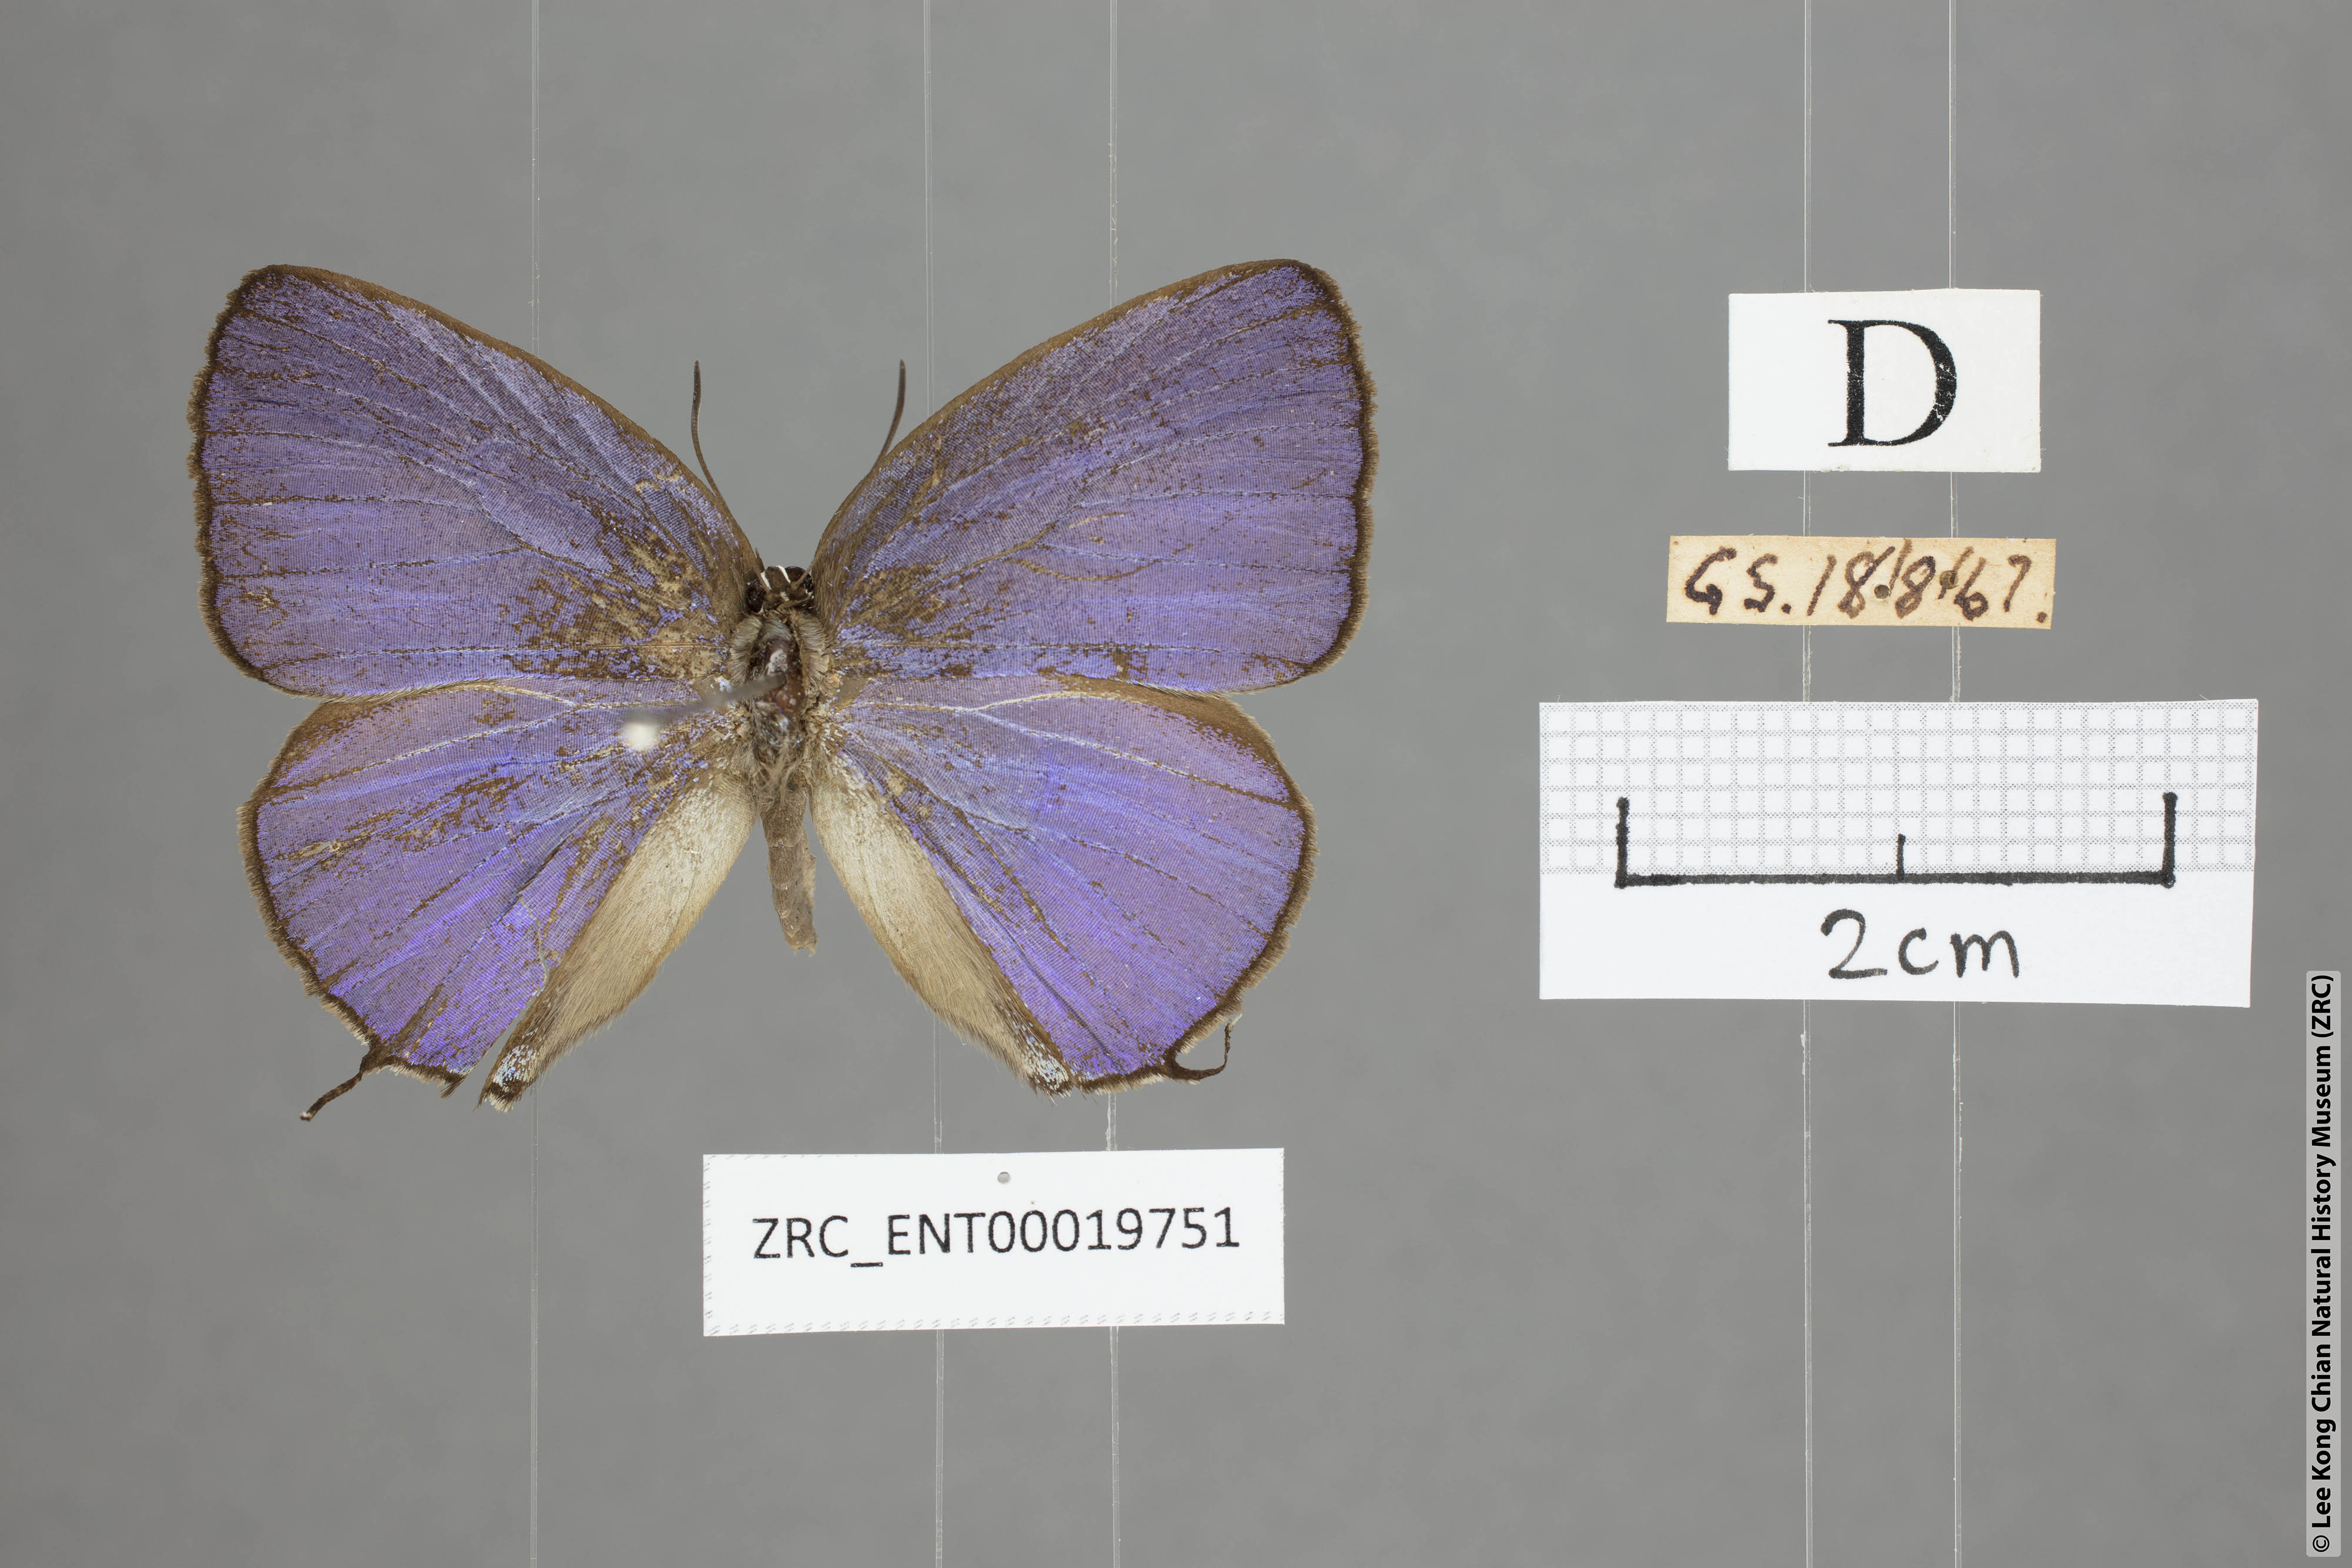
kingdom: Animalia
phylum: Arthropoda
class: Insecta
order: Lepidoptera
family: Lycaenidae
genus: Arhopala
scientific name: Arhopala opalina
